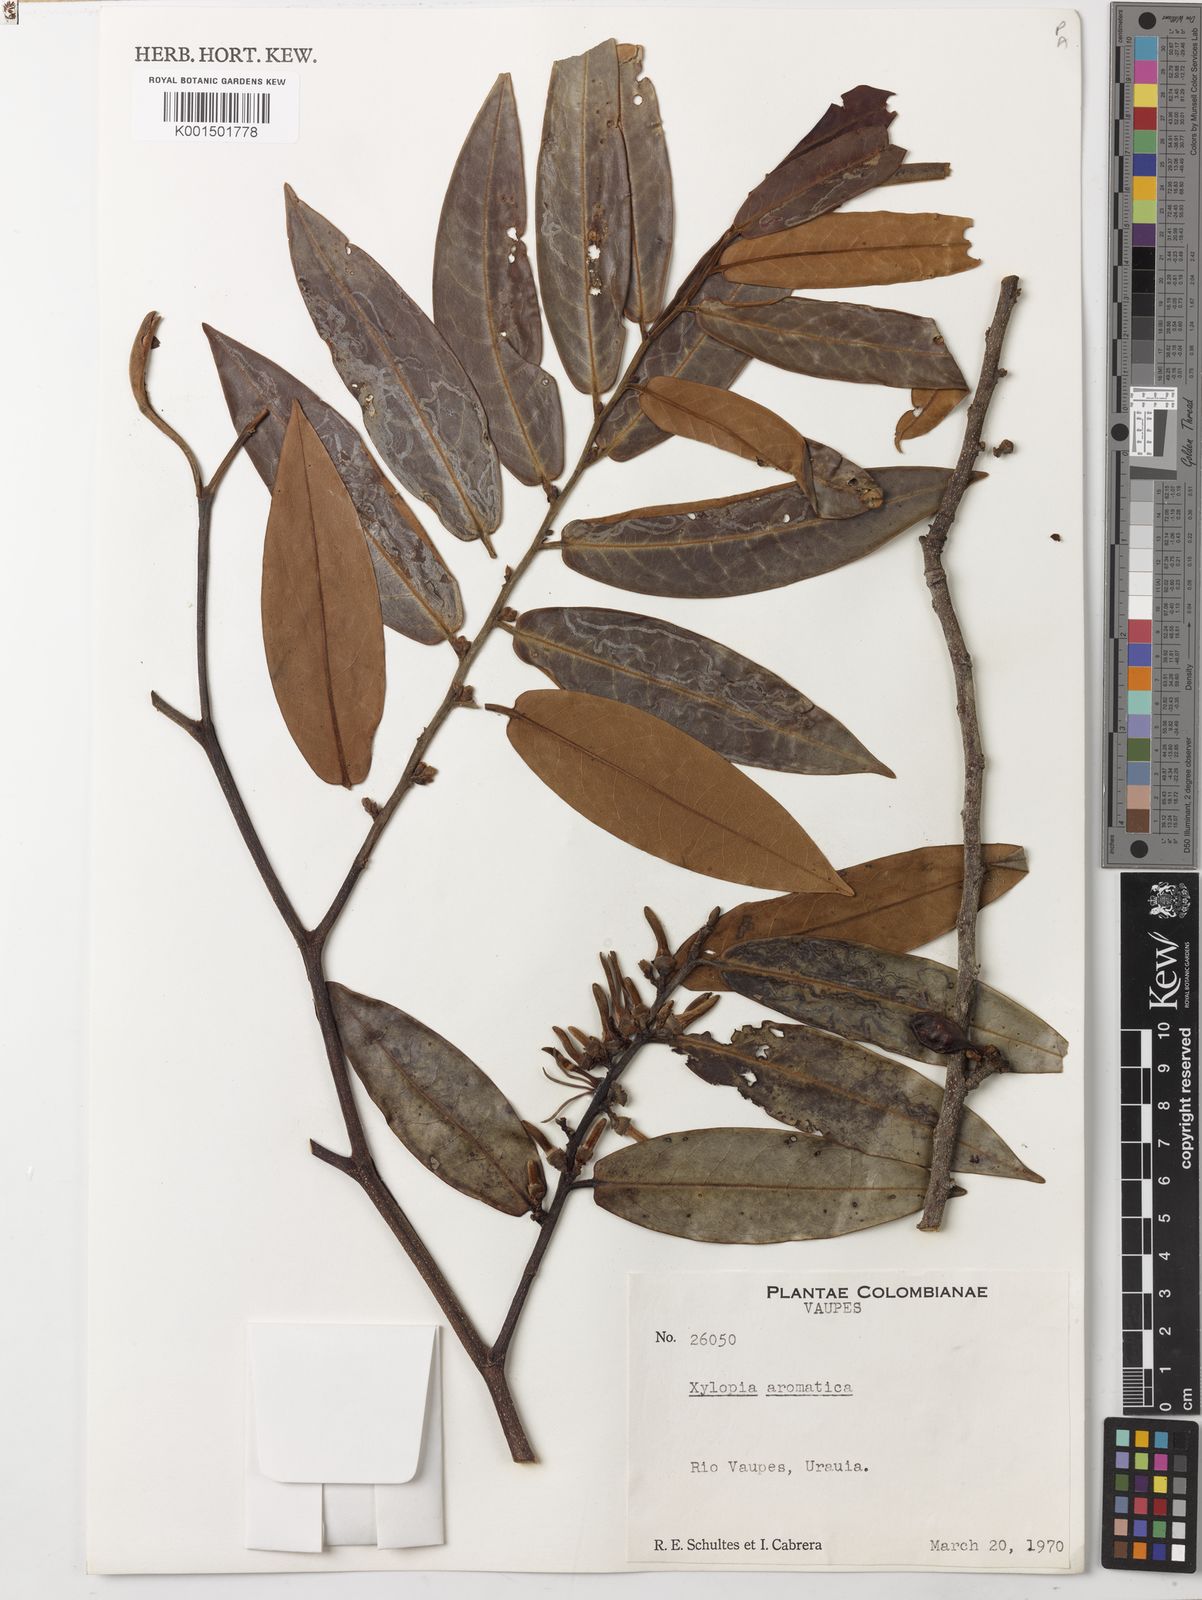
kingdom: Plantae
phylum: Tracheophyta
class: Magnoliopsida
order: Magnoliales
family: Annonaceae
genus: Xylopia
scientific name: Xylopia aromatica
